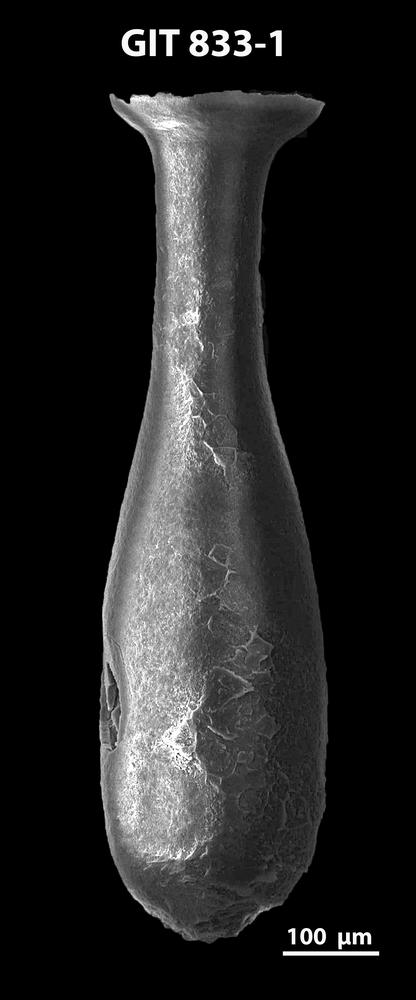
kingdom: Animalia
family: Lagenochitinidae
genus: Lagenochitina
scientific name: Lagenochitina megaesthonica
